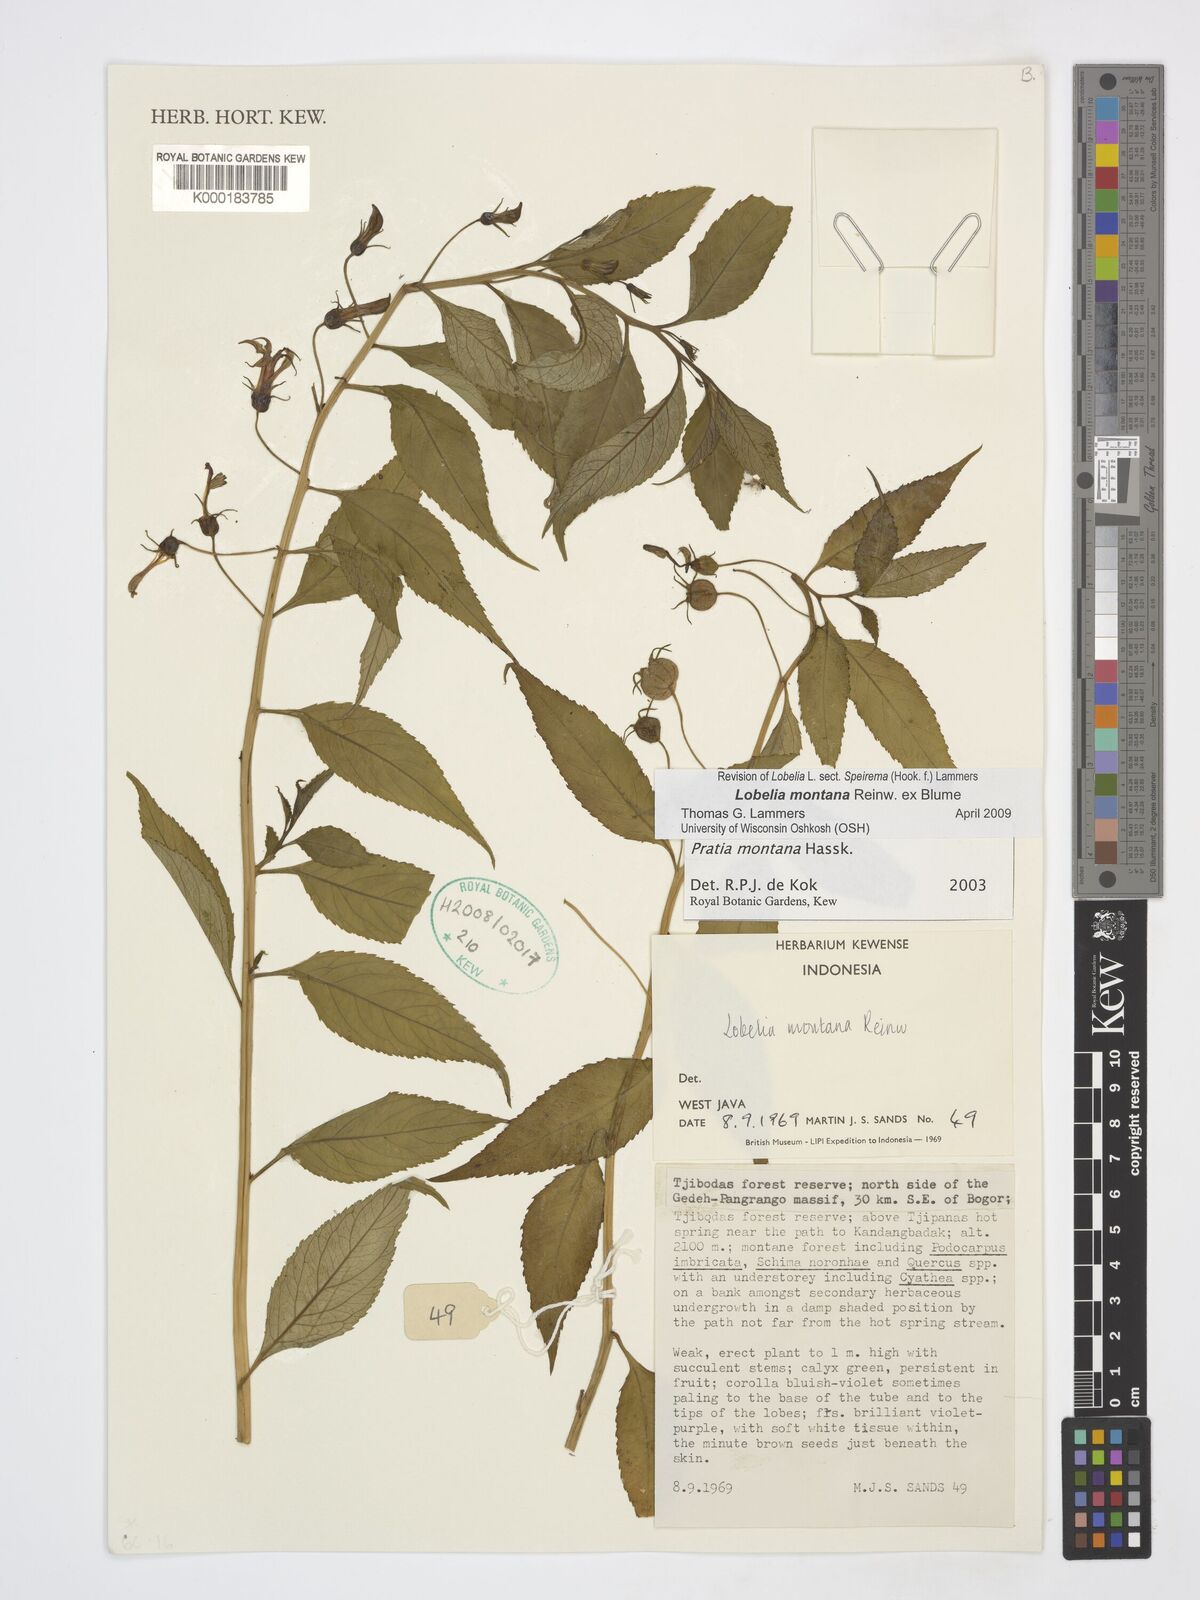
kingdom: Plantae
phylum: Tracheophyta
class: Magnoliopsida
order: Asterales
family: Campanulaceae
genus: Lobelia
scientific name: Lobelia montana
